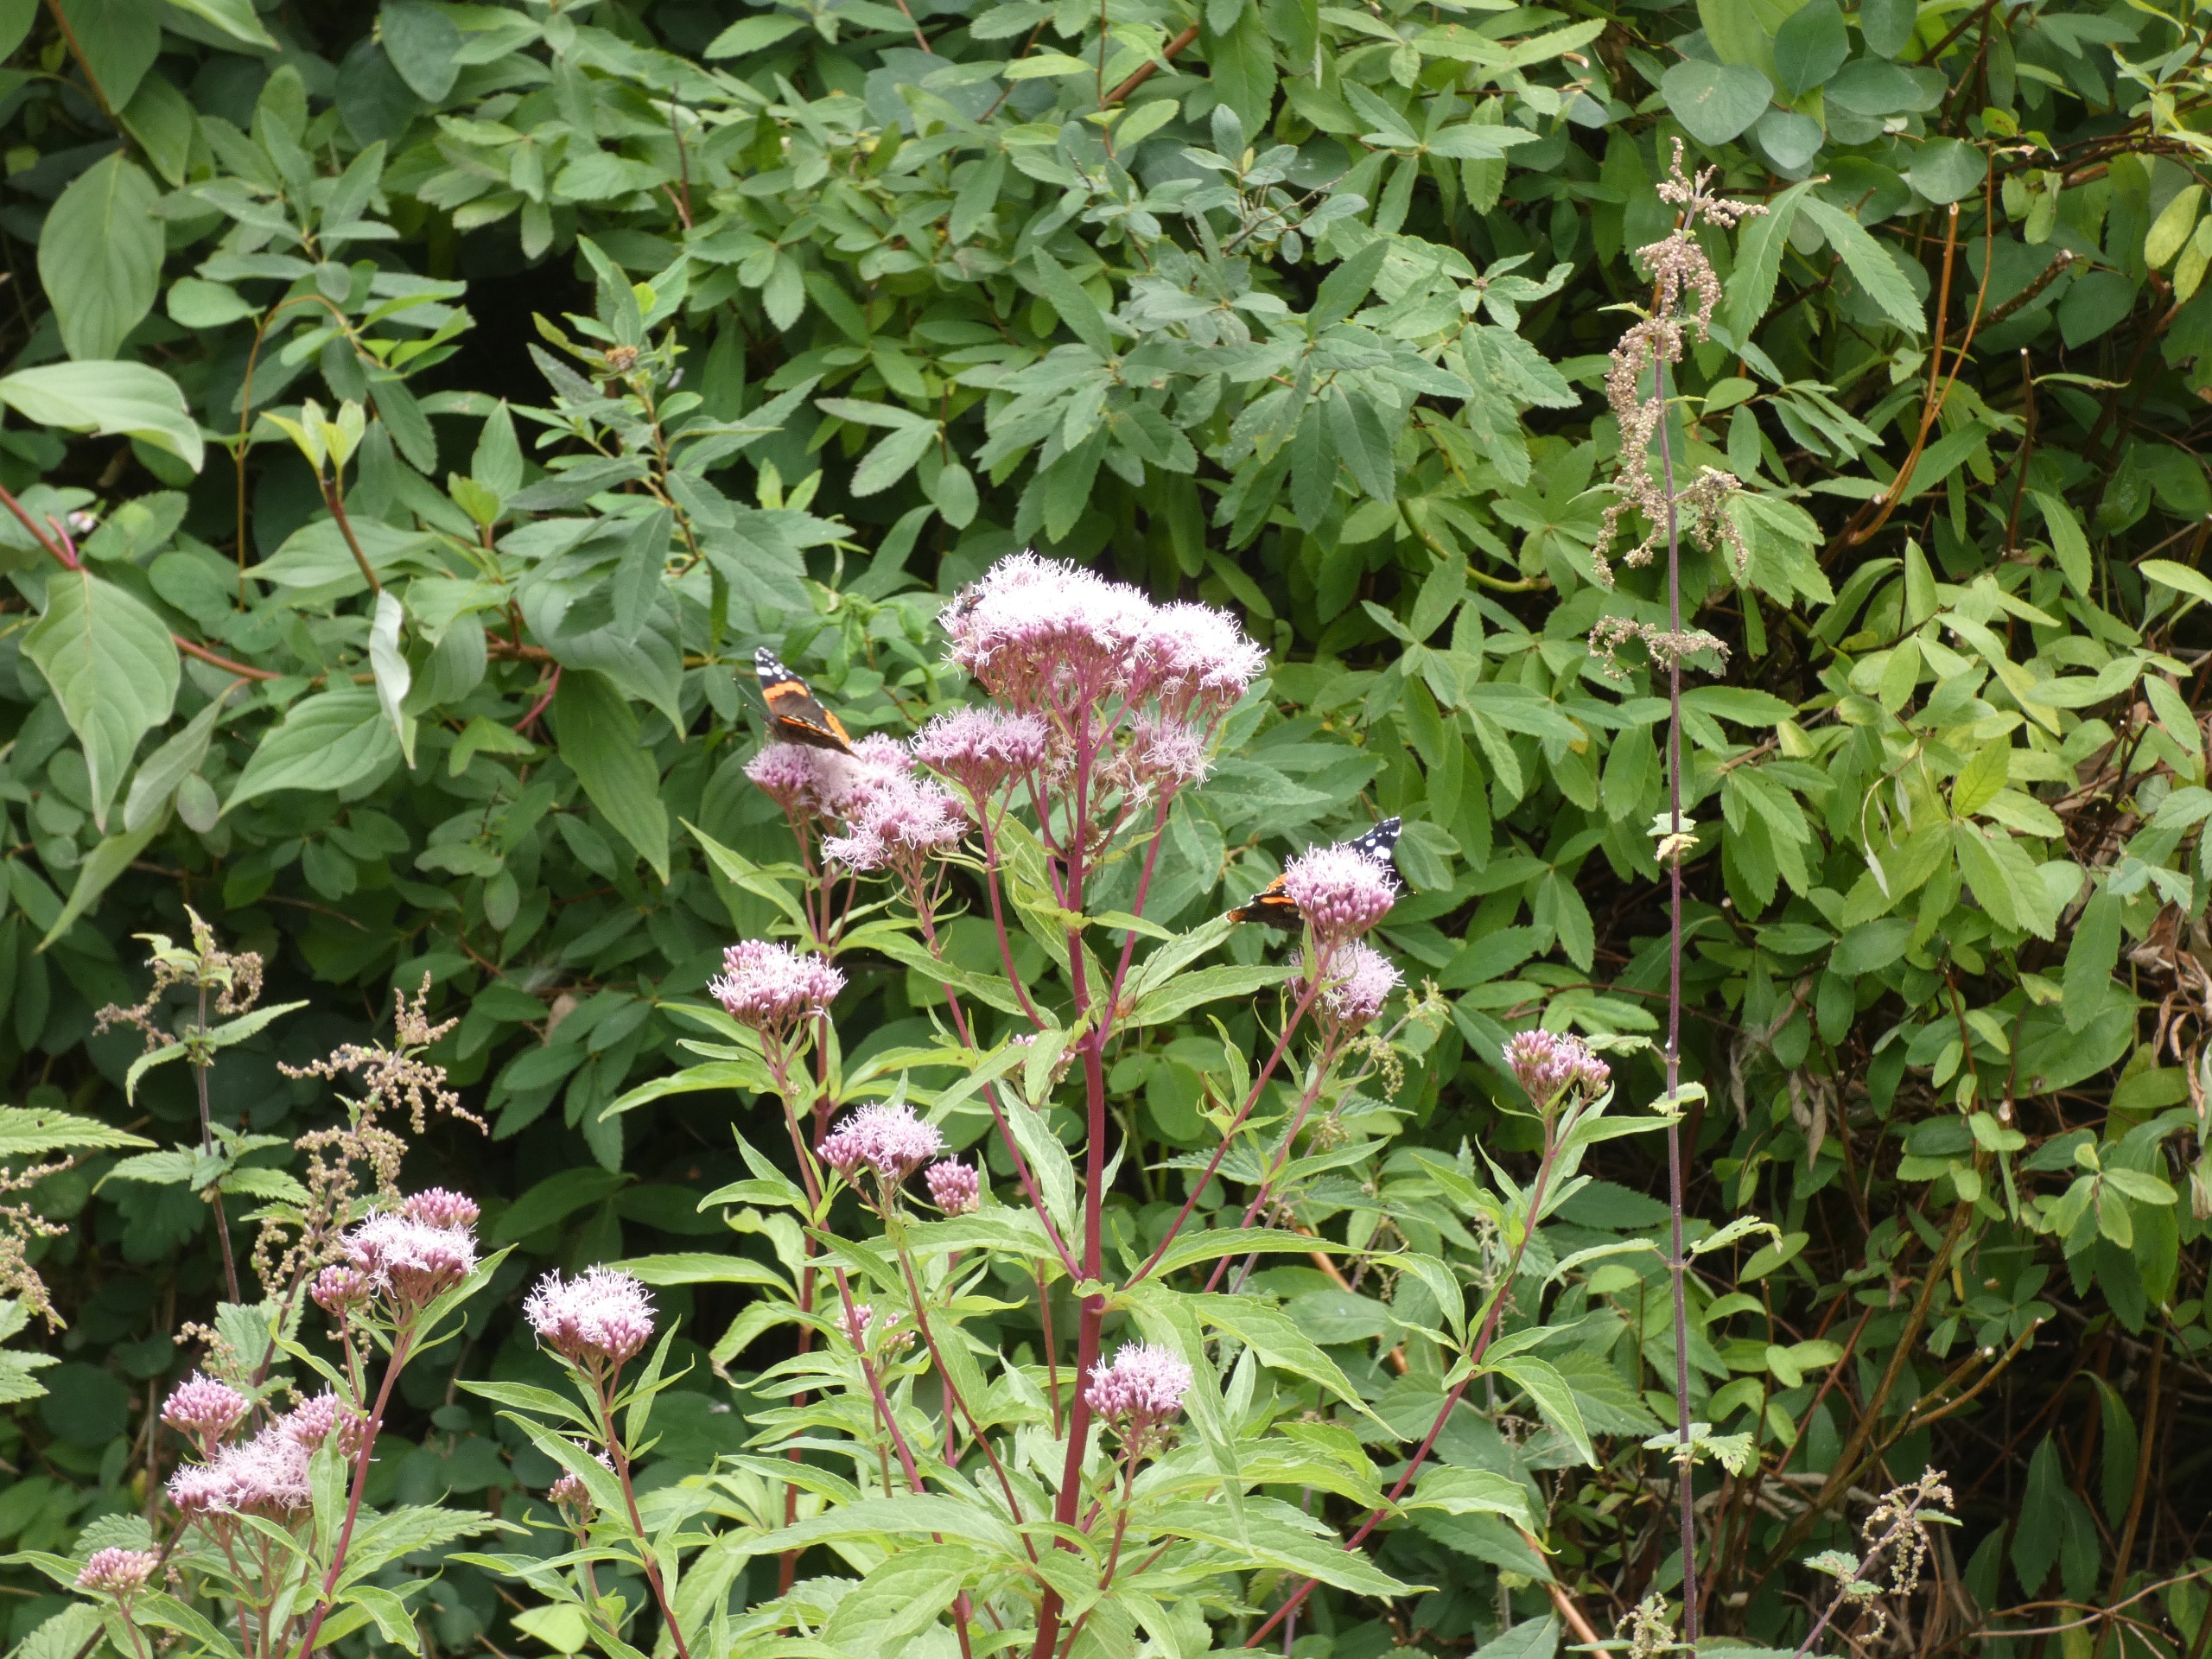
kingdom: Animalia
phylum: Arthropoda
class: Insecta
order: Lepidoptera
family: Nymphalidae
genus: Vanessa
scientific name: Vanessa atalanta
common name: Admiral
